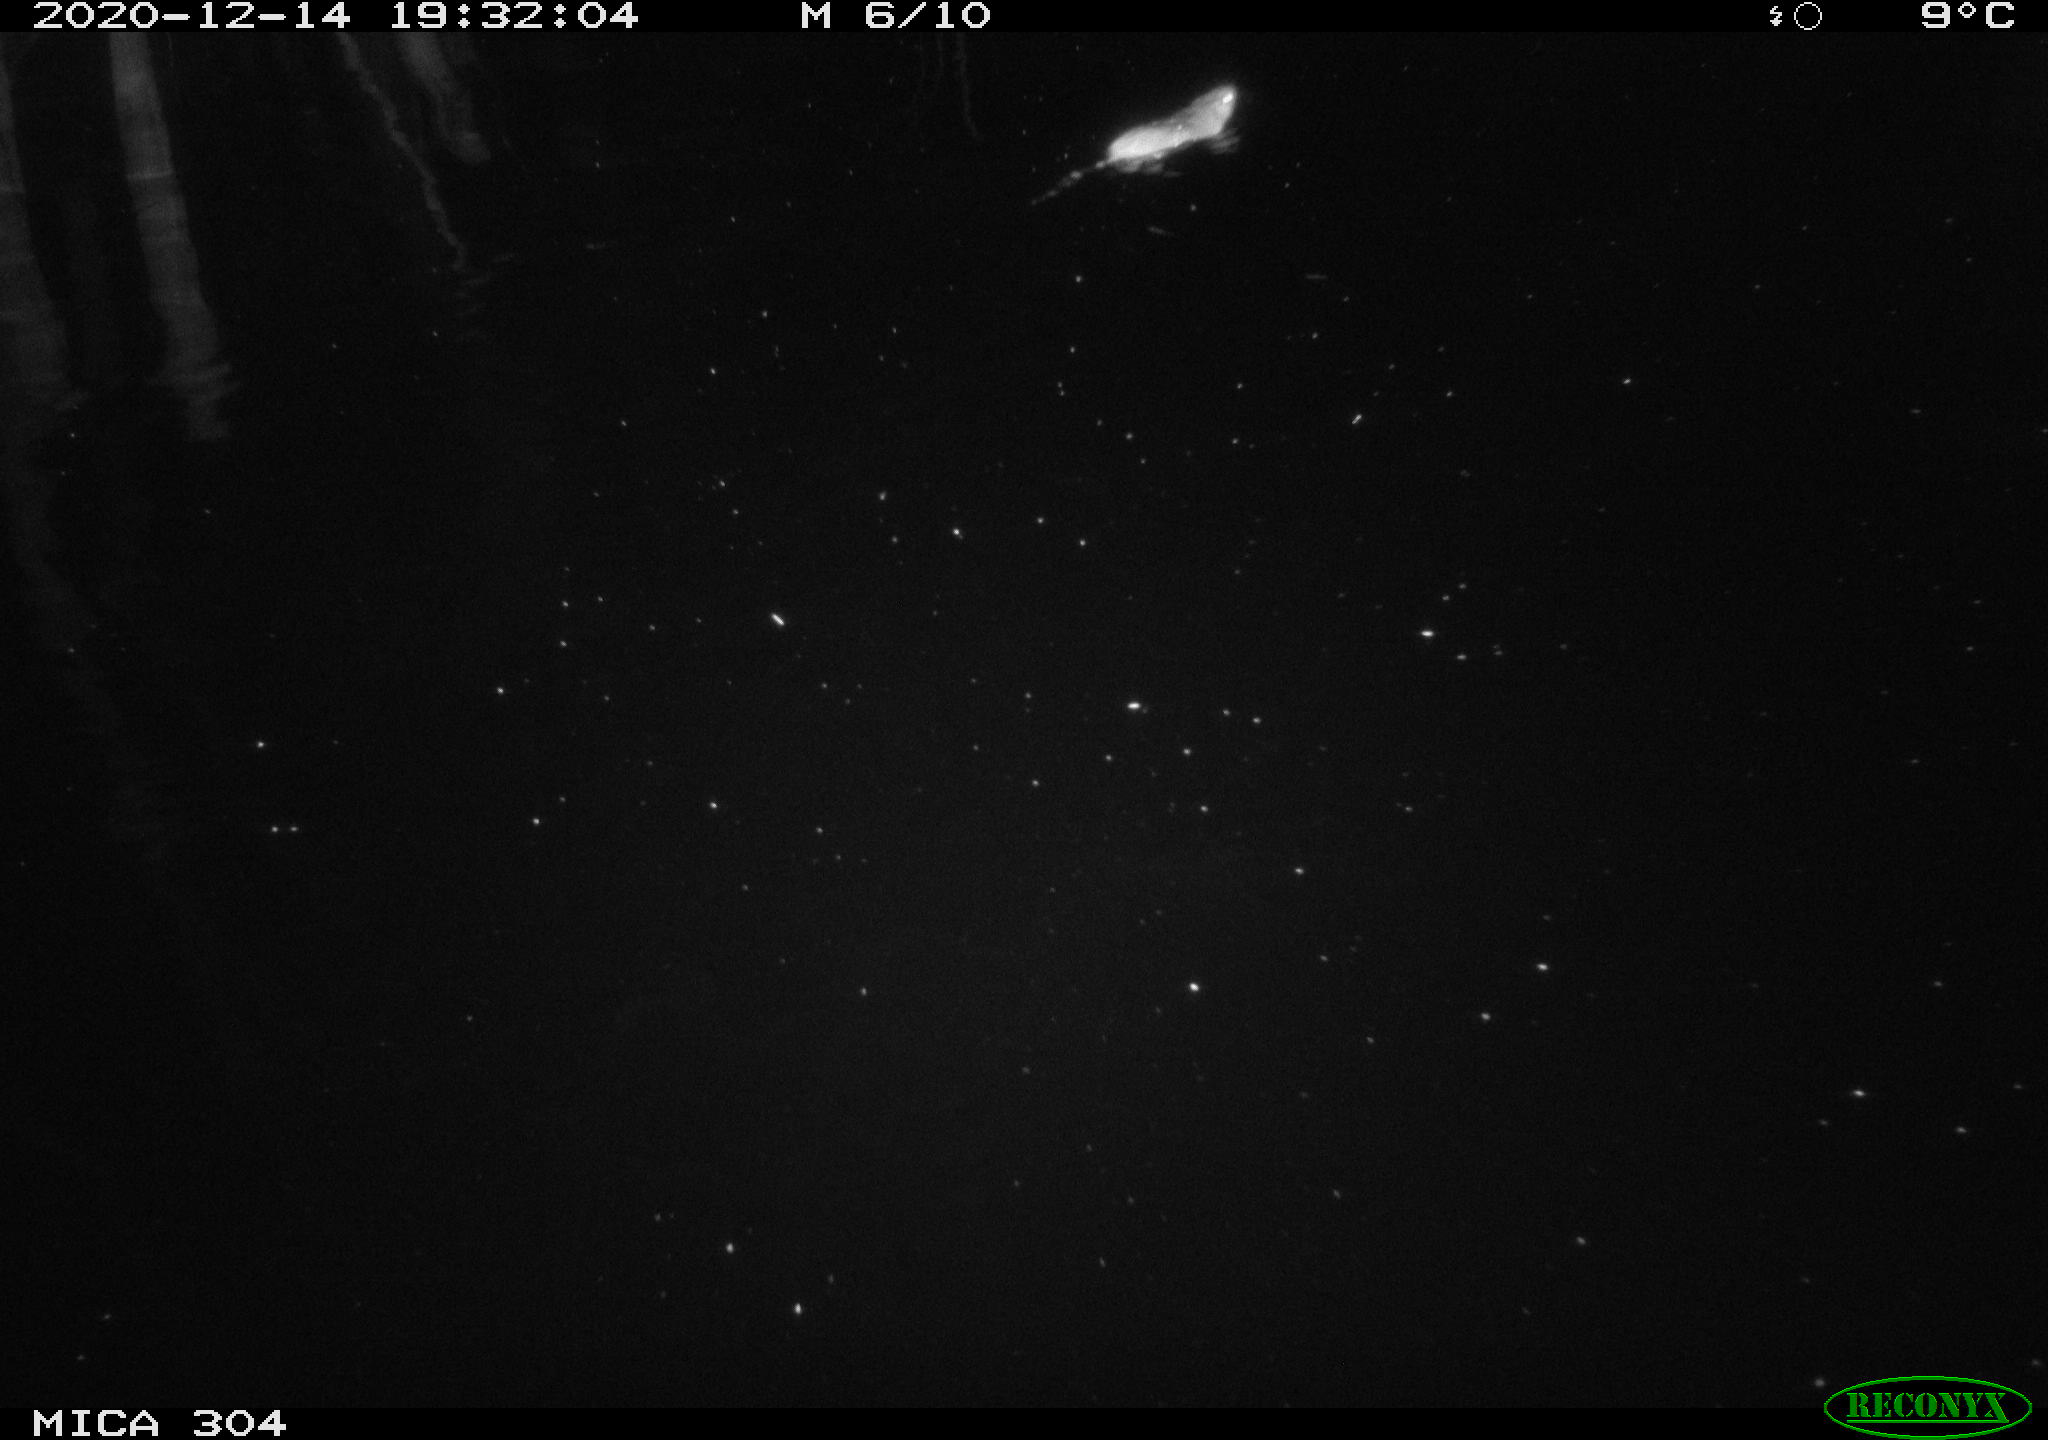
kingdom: Animalia
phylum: Chordata
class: Mammalia
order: Rodentia
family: Muridae
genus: Rattus
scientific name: Rattus norvegicus
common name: Brown rat
